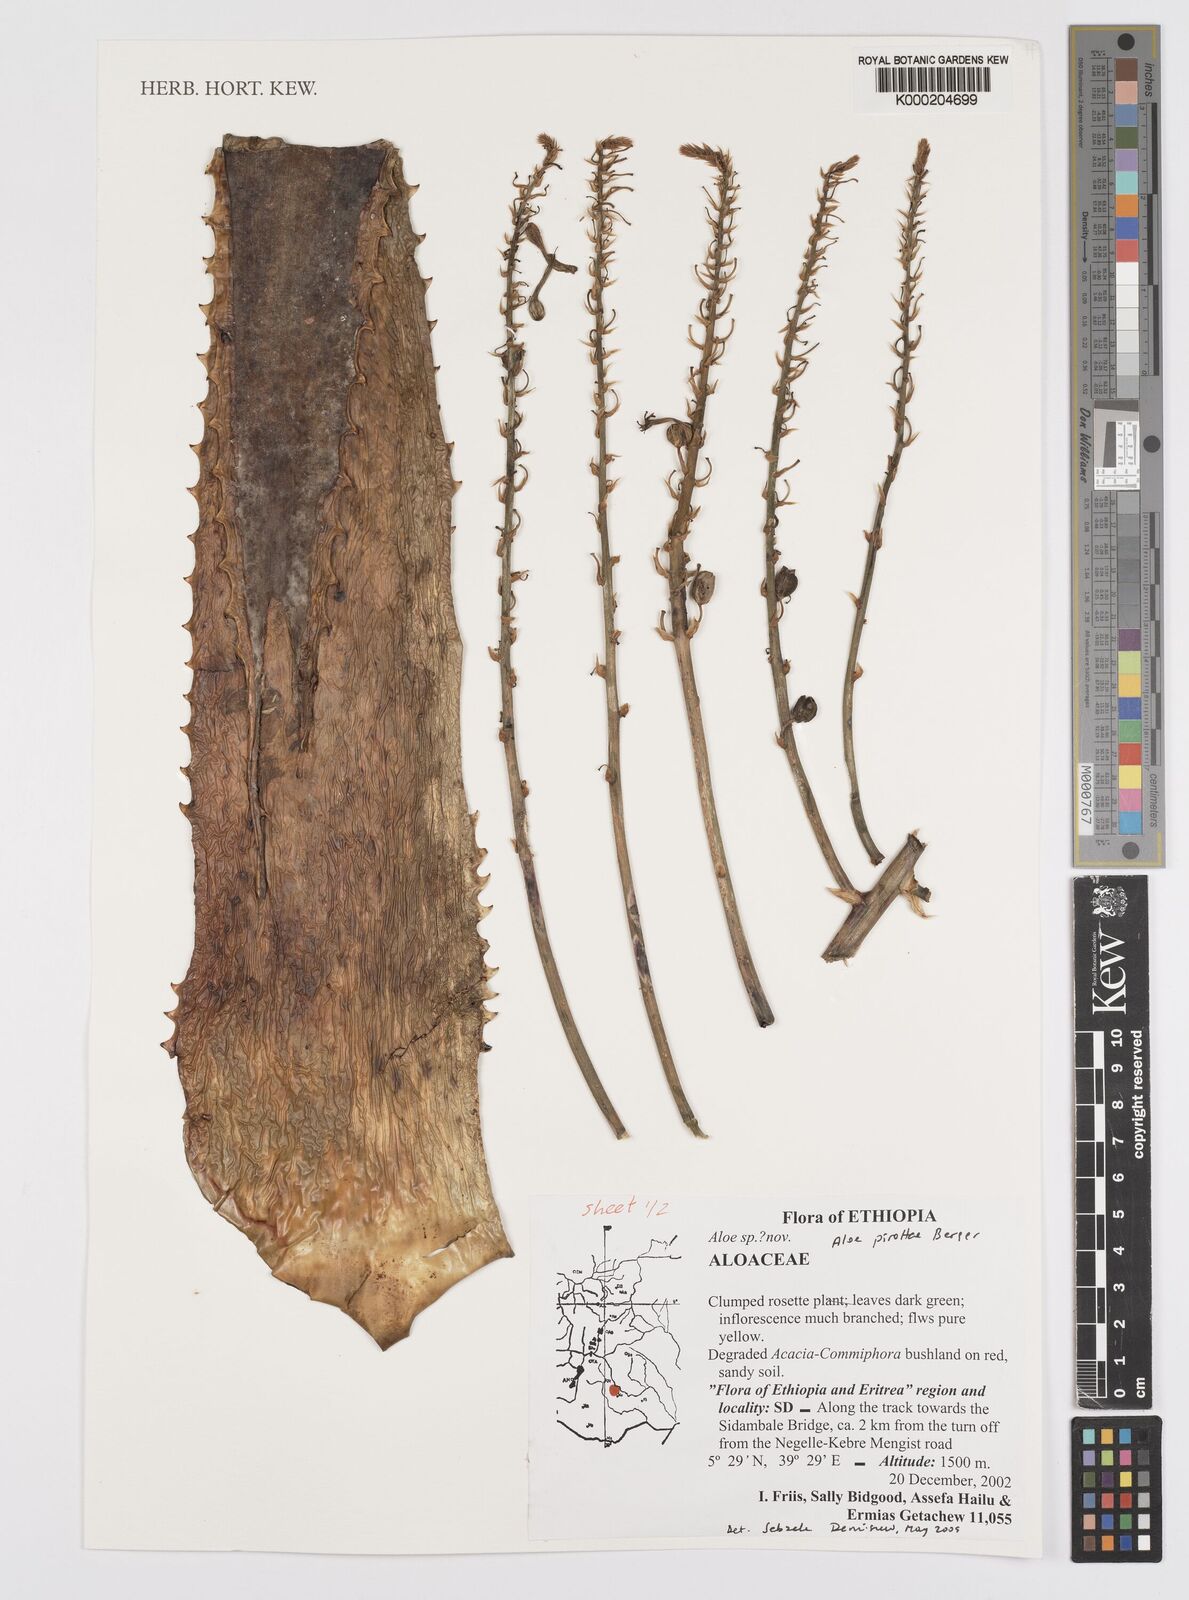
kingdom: Plantae
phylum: Tracheophyta
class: Liliopsida
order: Asparagales
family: Asphodelaceae
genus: Aloe
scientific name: Aloe pirottae
